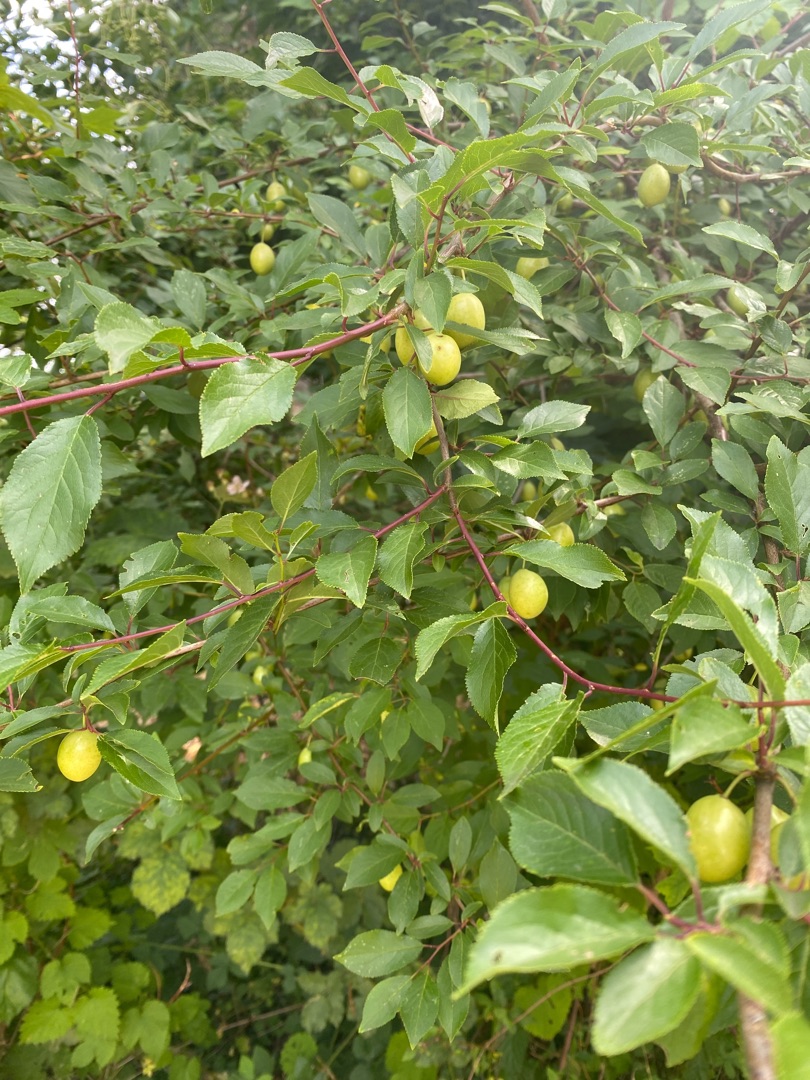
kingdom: Plantae
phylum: Tracheophyta
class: Magnoliopsida
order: Rosales
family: Rosaceae
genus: Prunus
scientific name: Prunus cerasifera
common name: Mirabel
